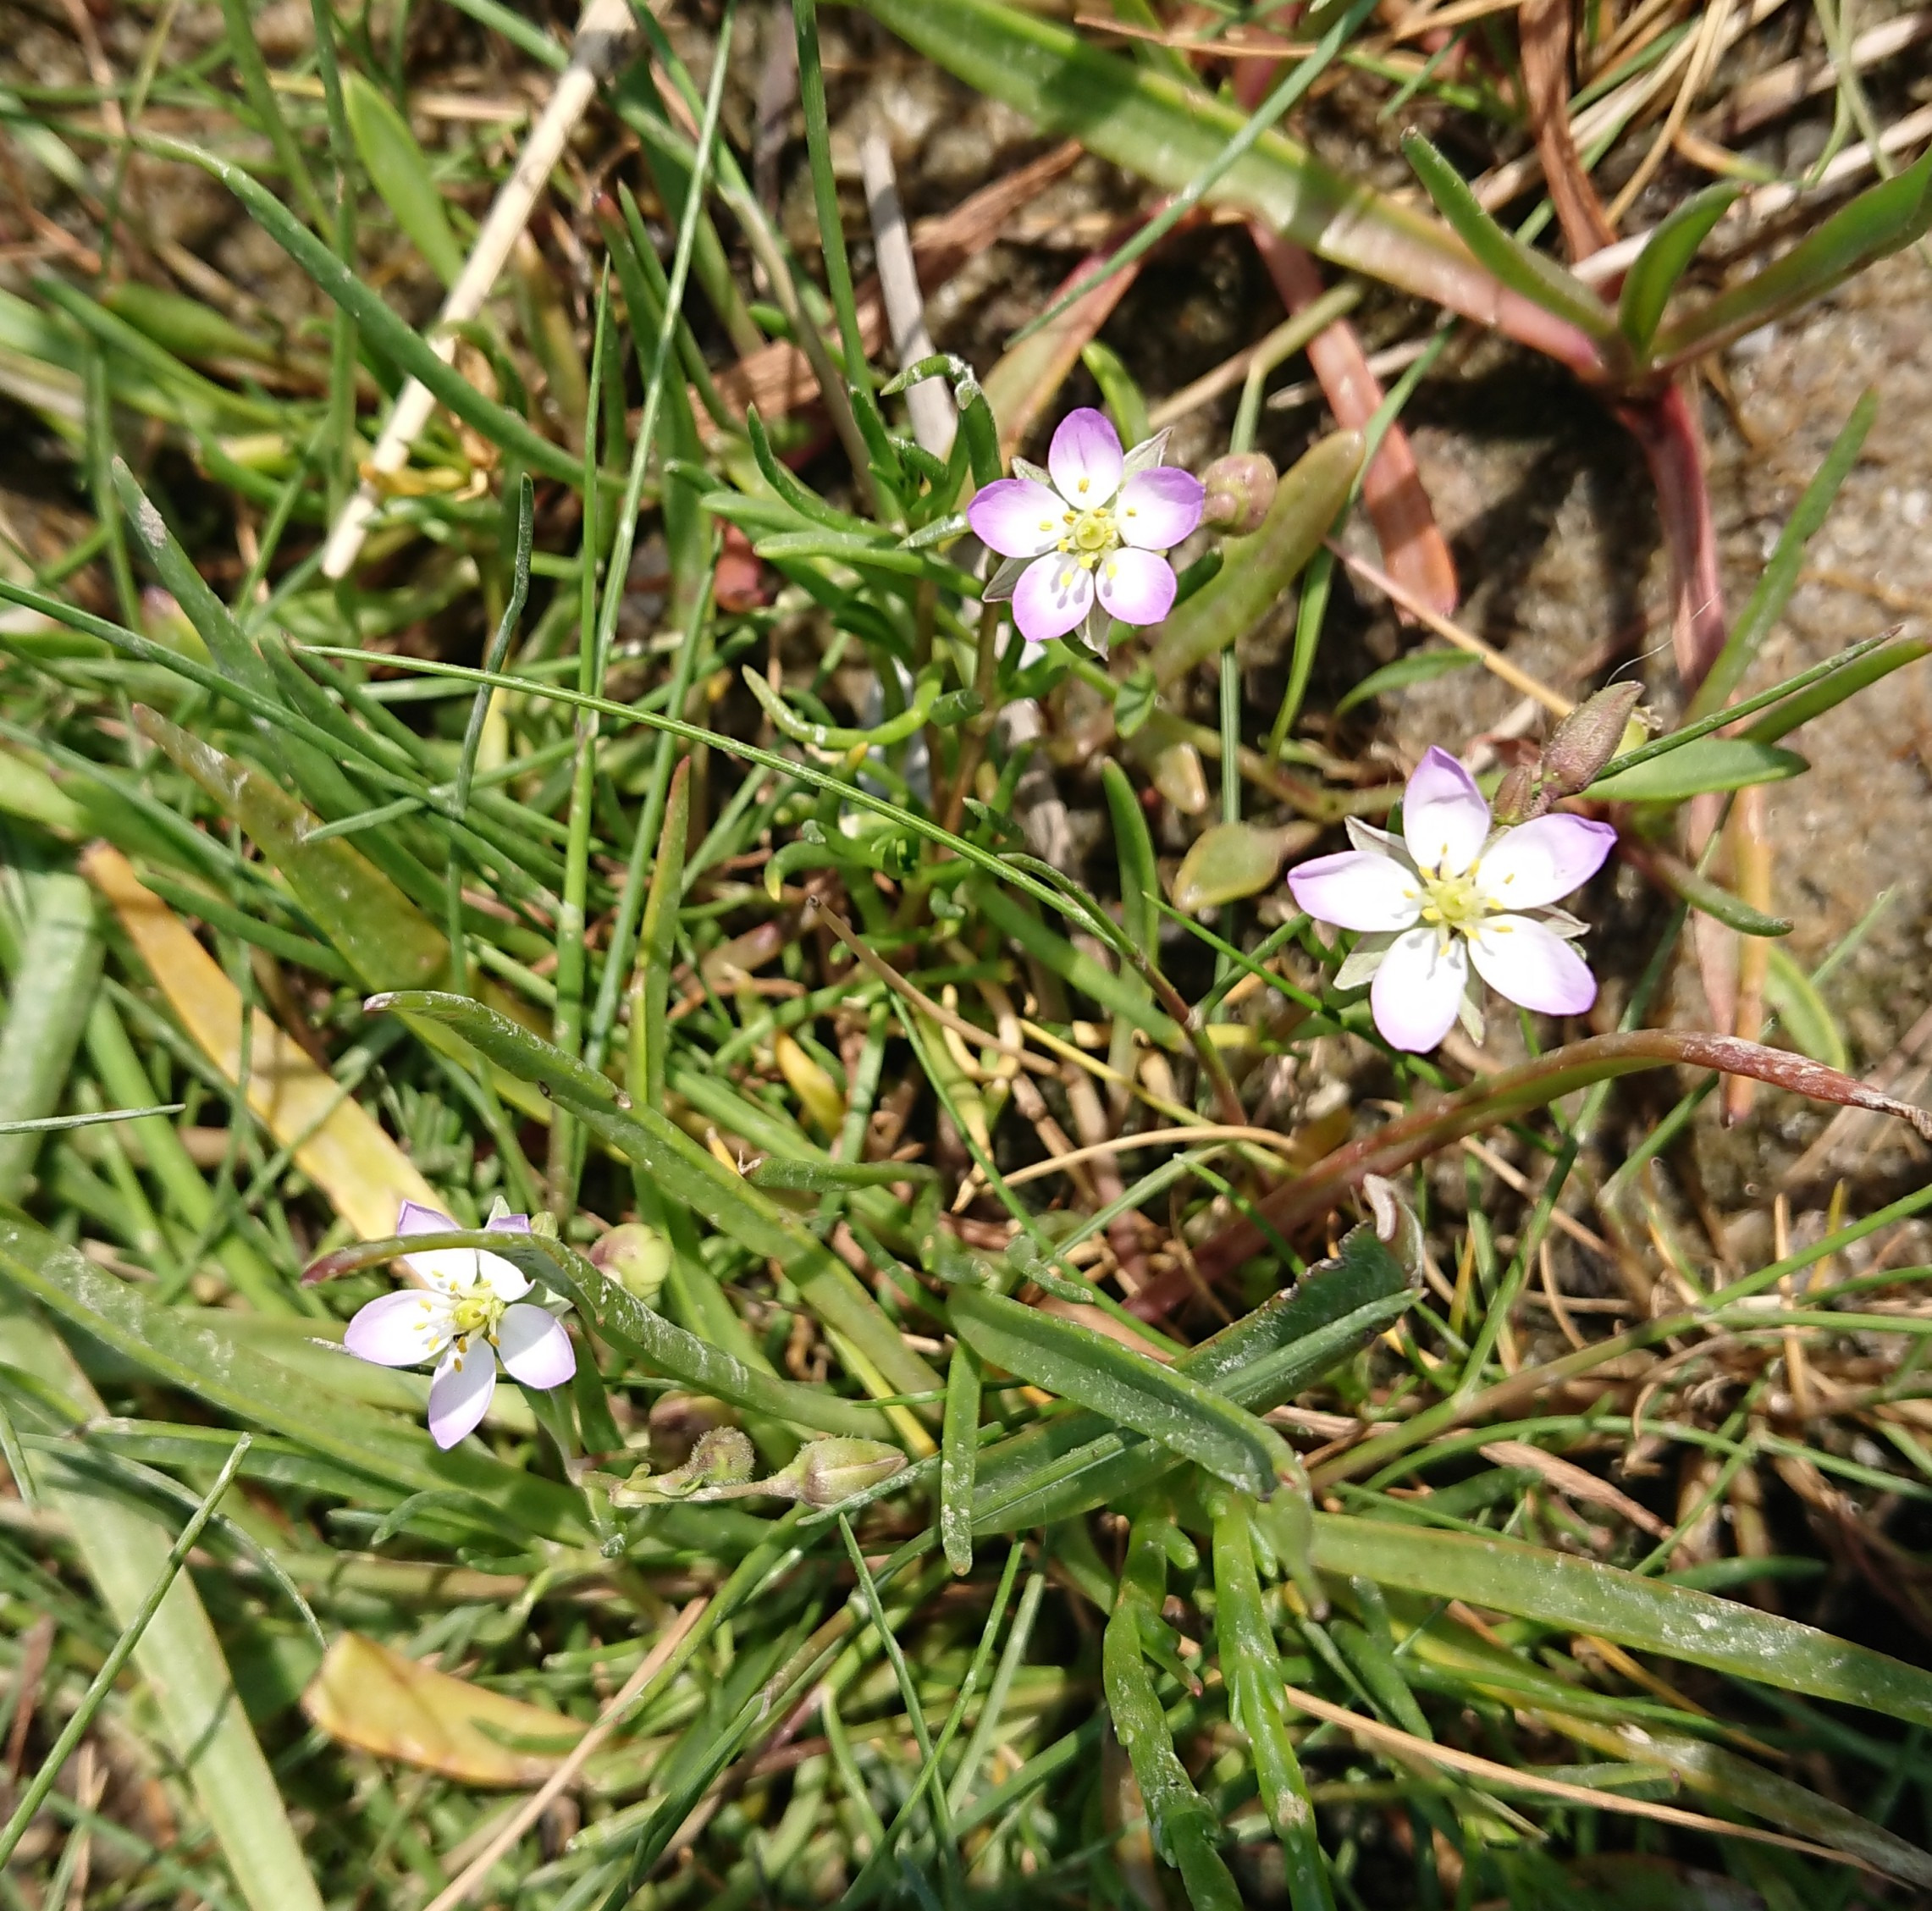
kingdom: Plantae
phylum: Tracheophyta
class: Magnoliopsida
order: Caryophyllales
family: Caryophyllaceae
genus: Spergularia
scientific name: Spergularia media
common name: Vingefrøet hindeknæ
